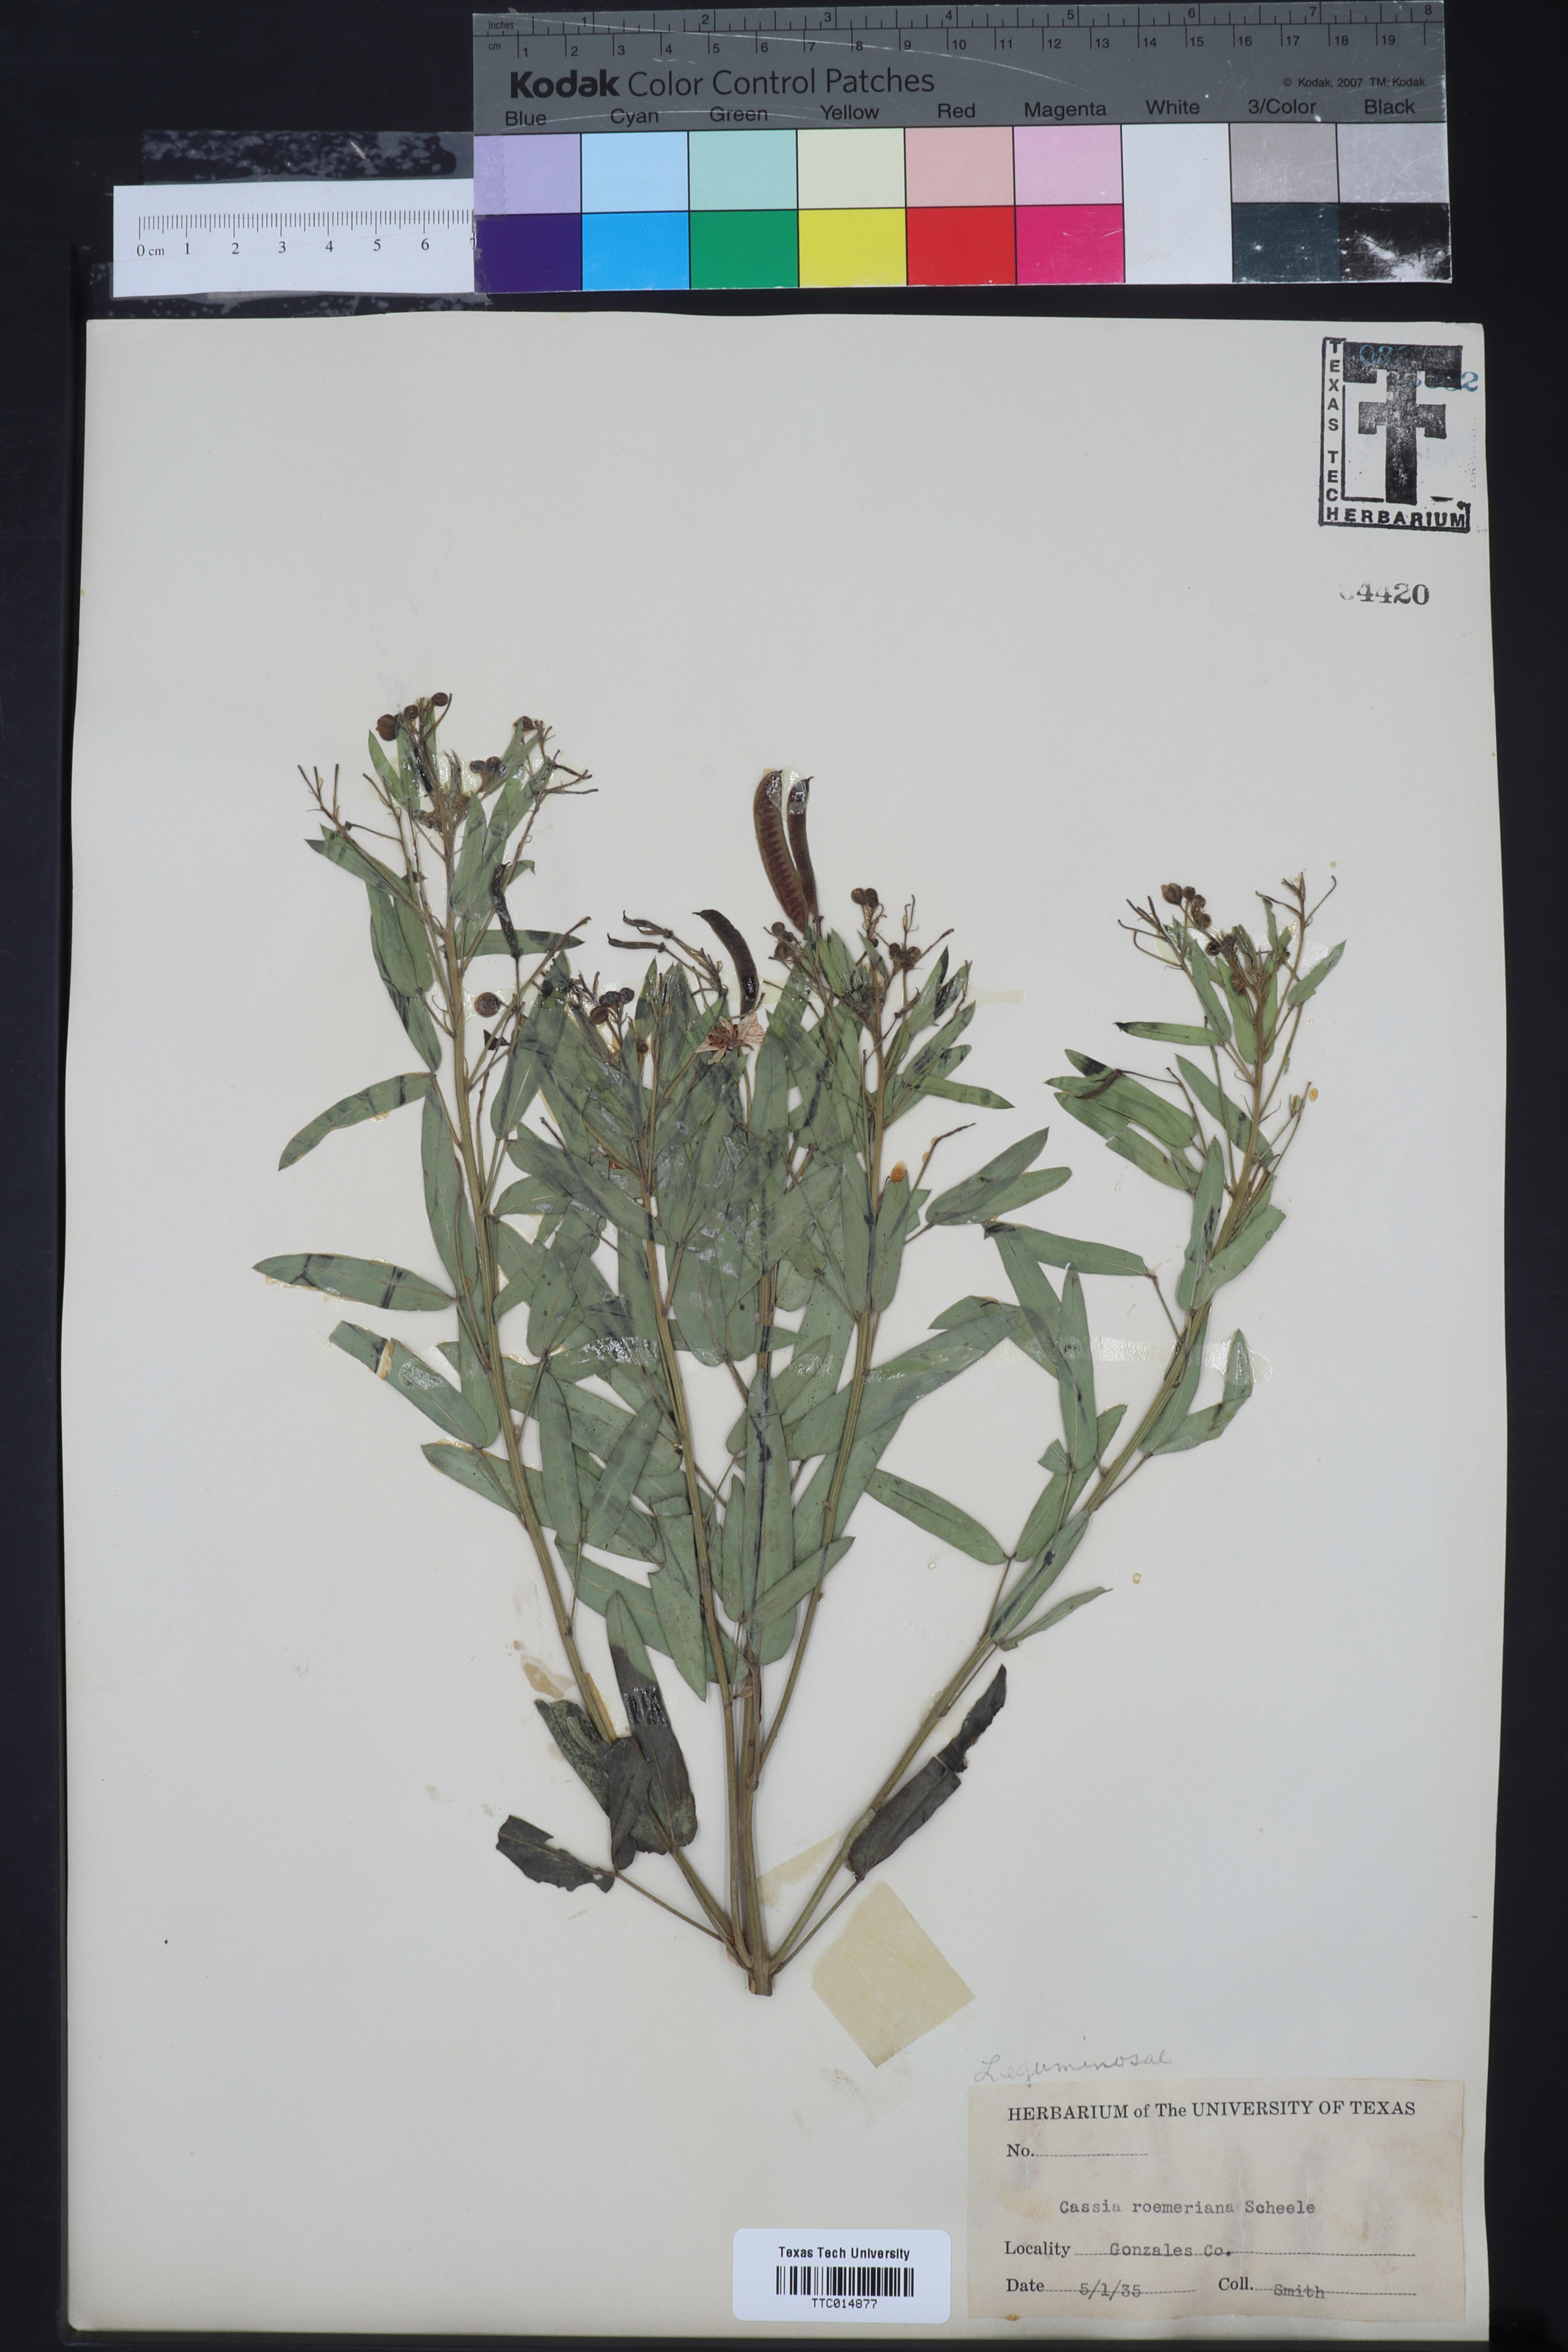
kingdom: Plantae
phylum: Tracheophyta
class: Magnoliopsida
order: Fabales
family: Fabaceae
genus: Senna
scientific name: Senna roemeriana
